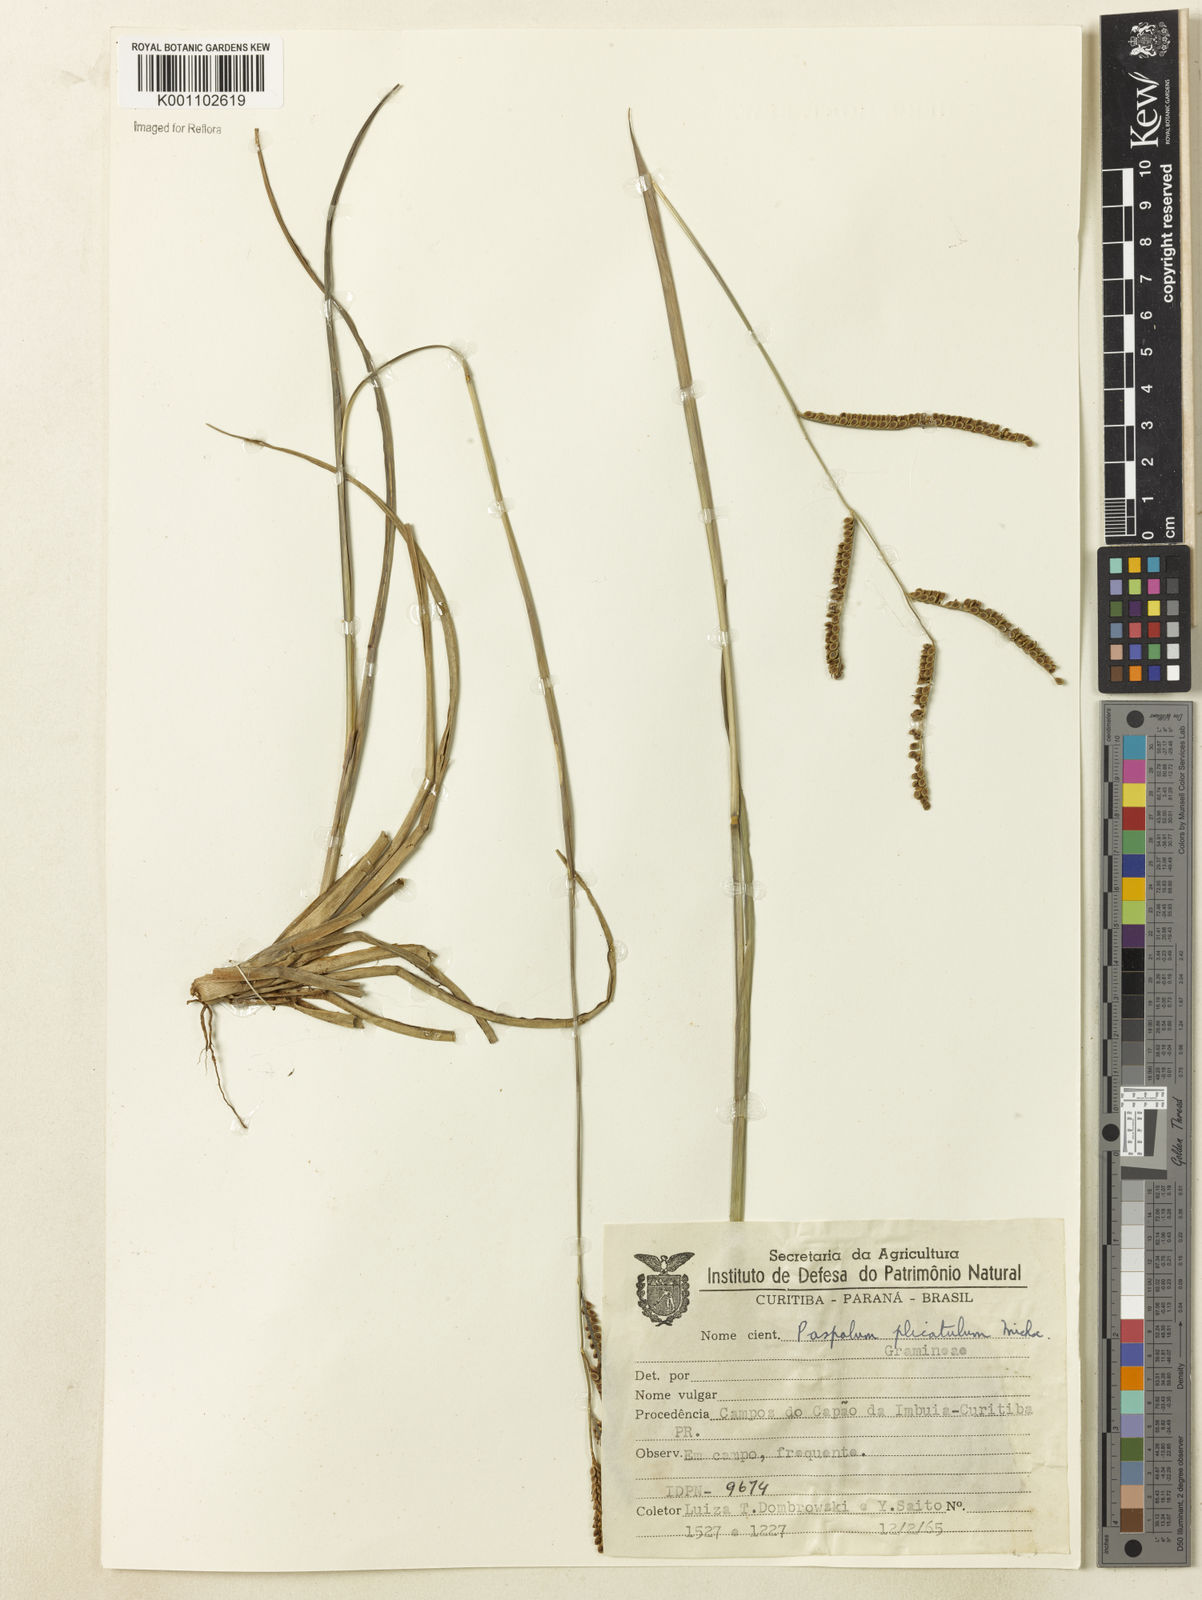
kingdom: Plantae
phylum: Tracheophyta
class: Liliopsida
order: Poales
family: Poaceae
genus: Paspalum
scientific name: Paspalum
